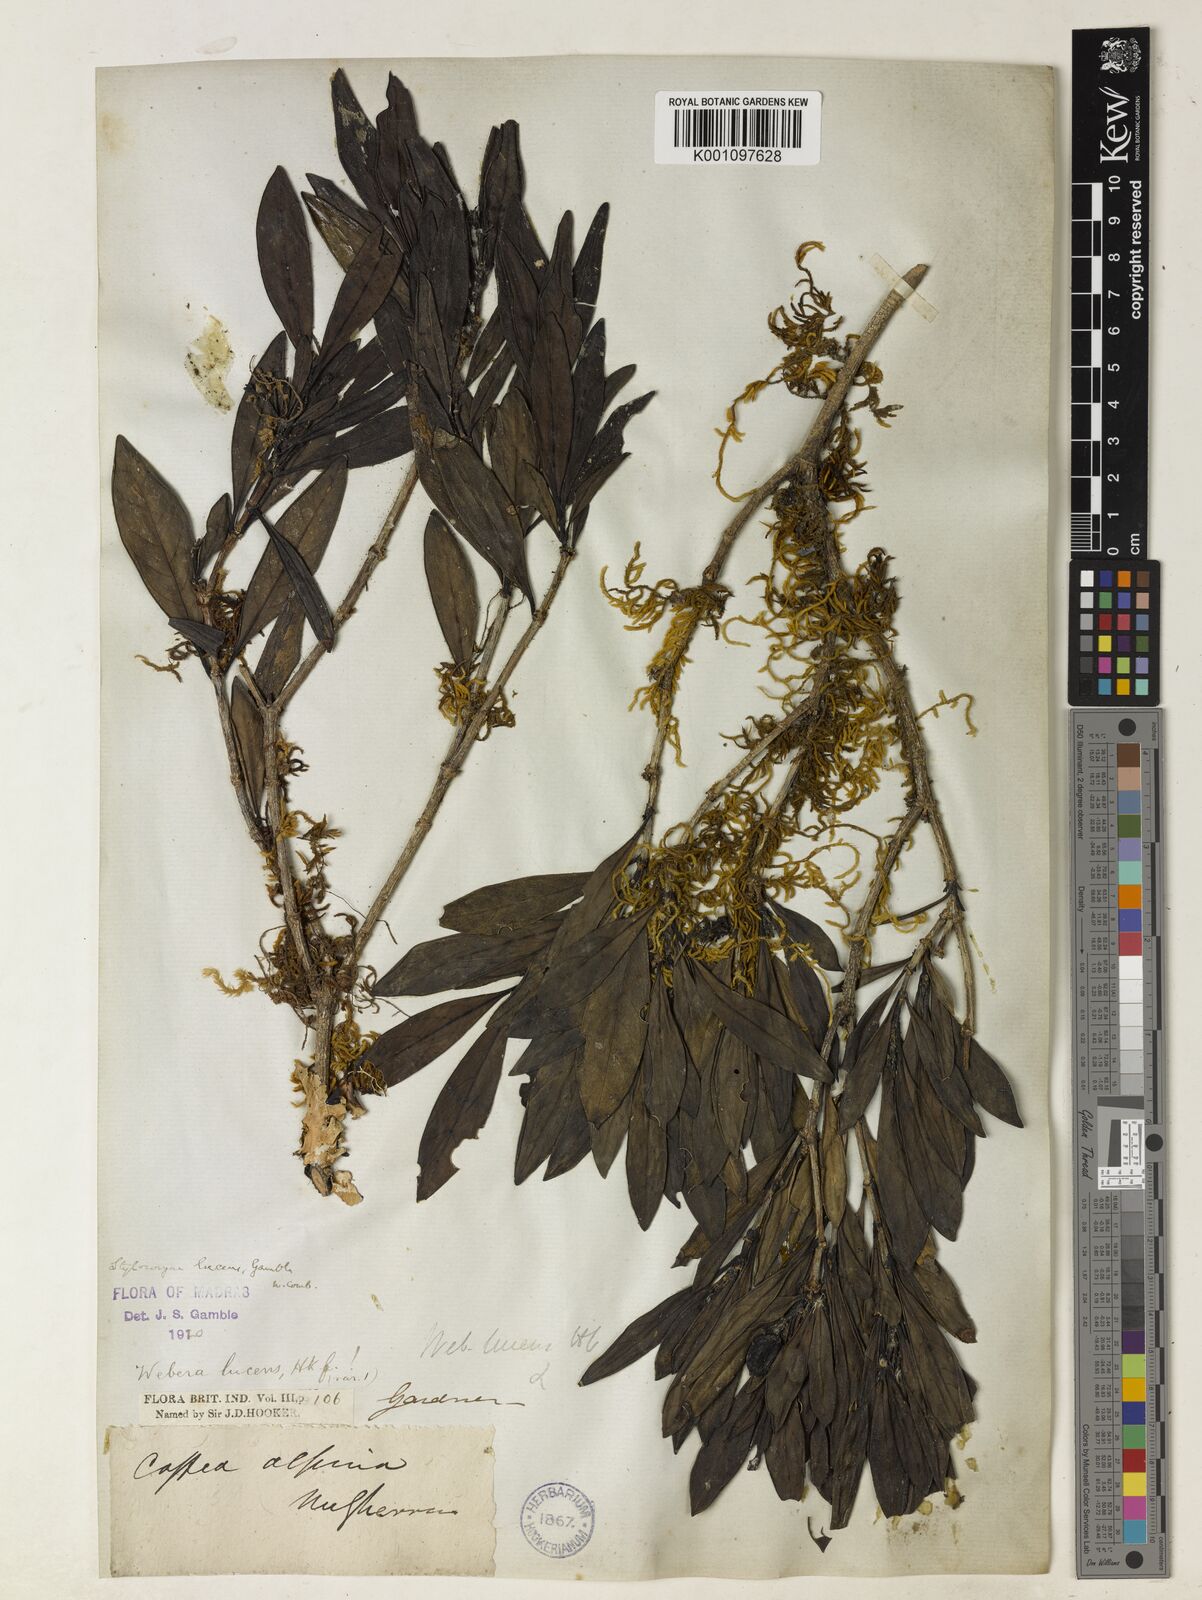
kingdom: Plantae
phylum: Tracheophyta
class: Magnoliopsida
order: Gentianales
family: Rubiaceae
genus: Tarenna
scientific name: Tarenna alpestris
